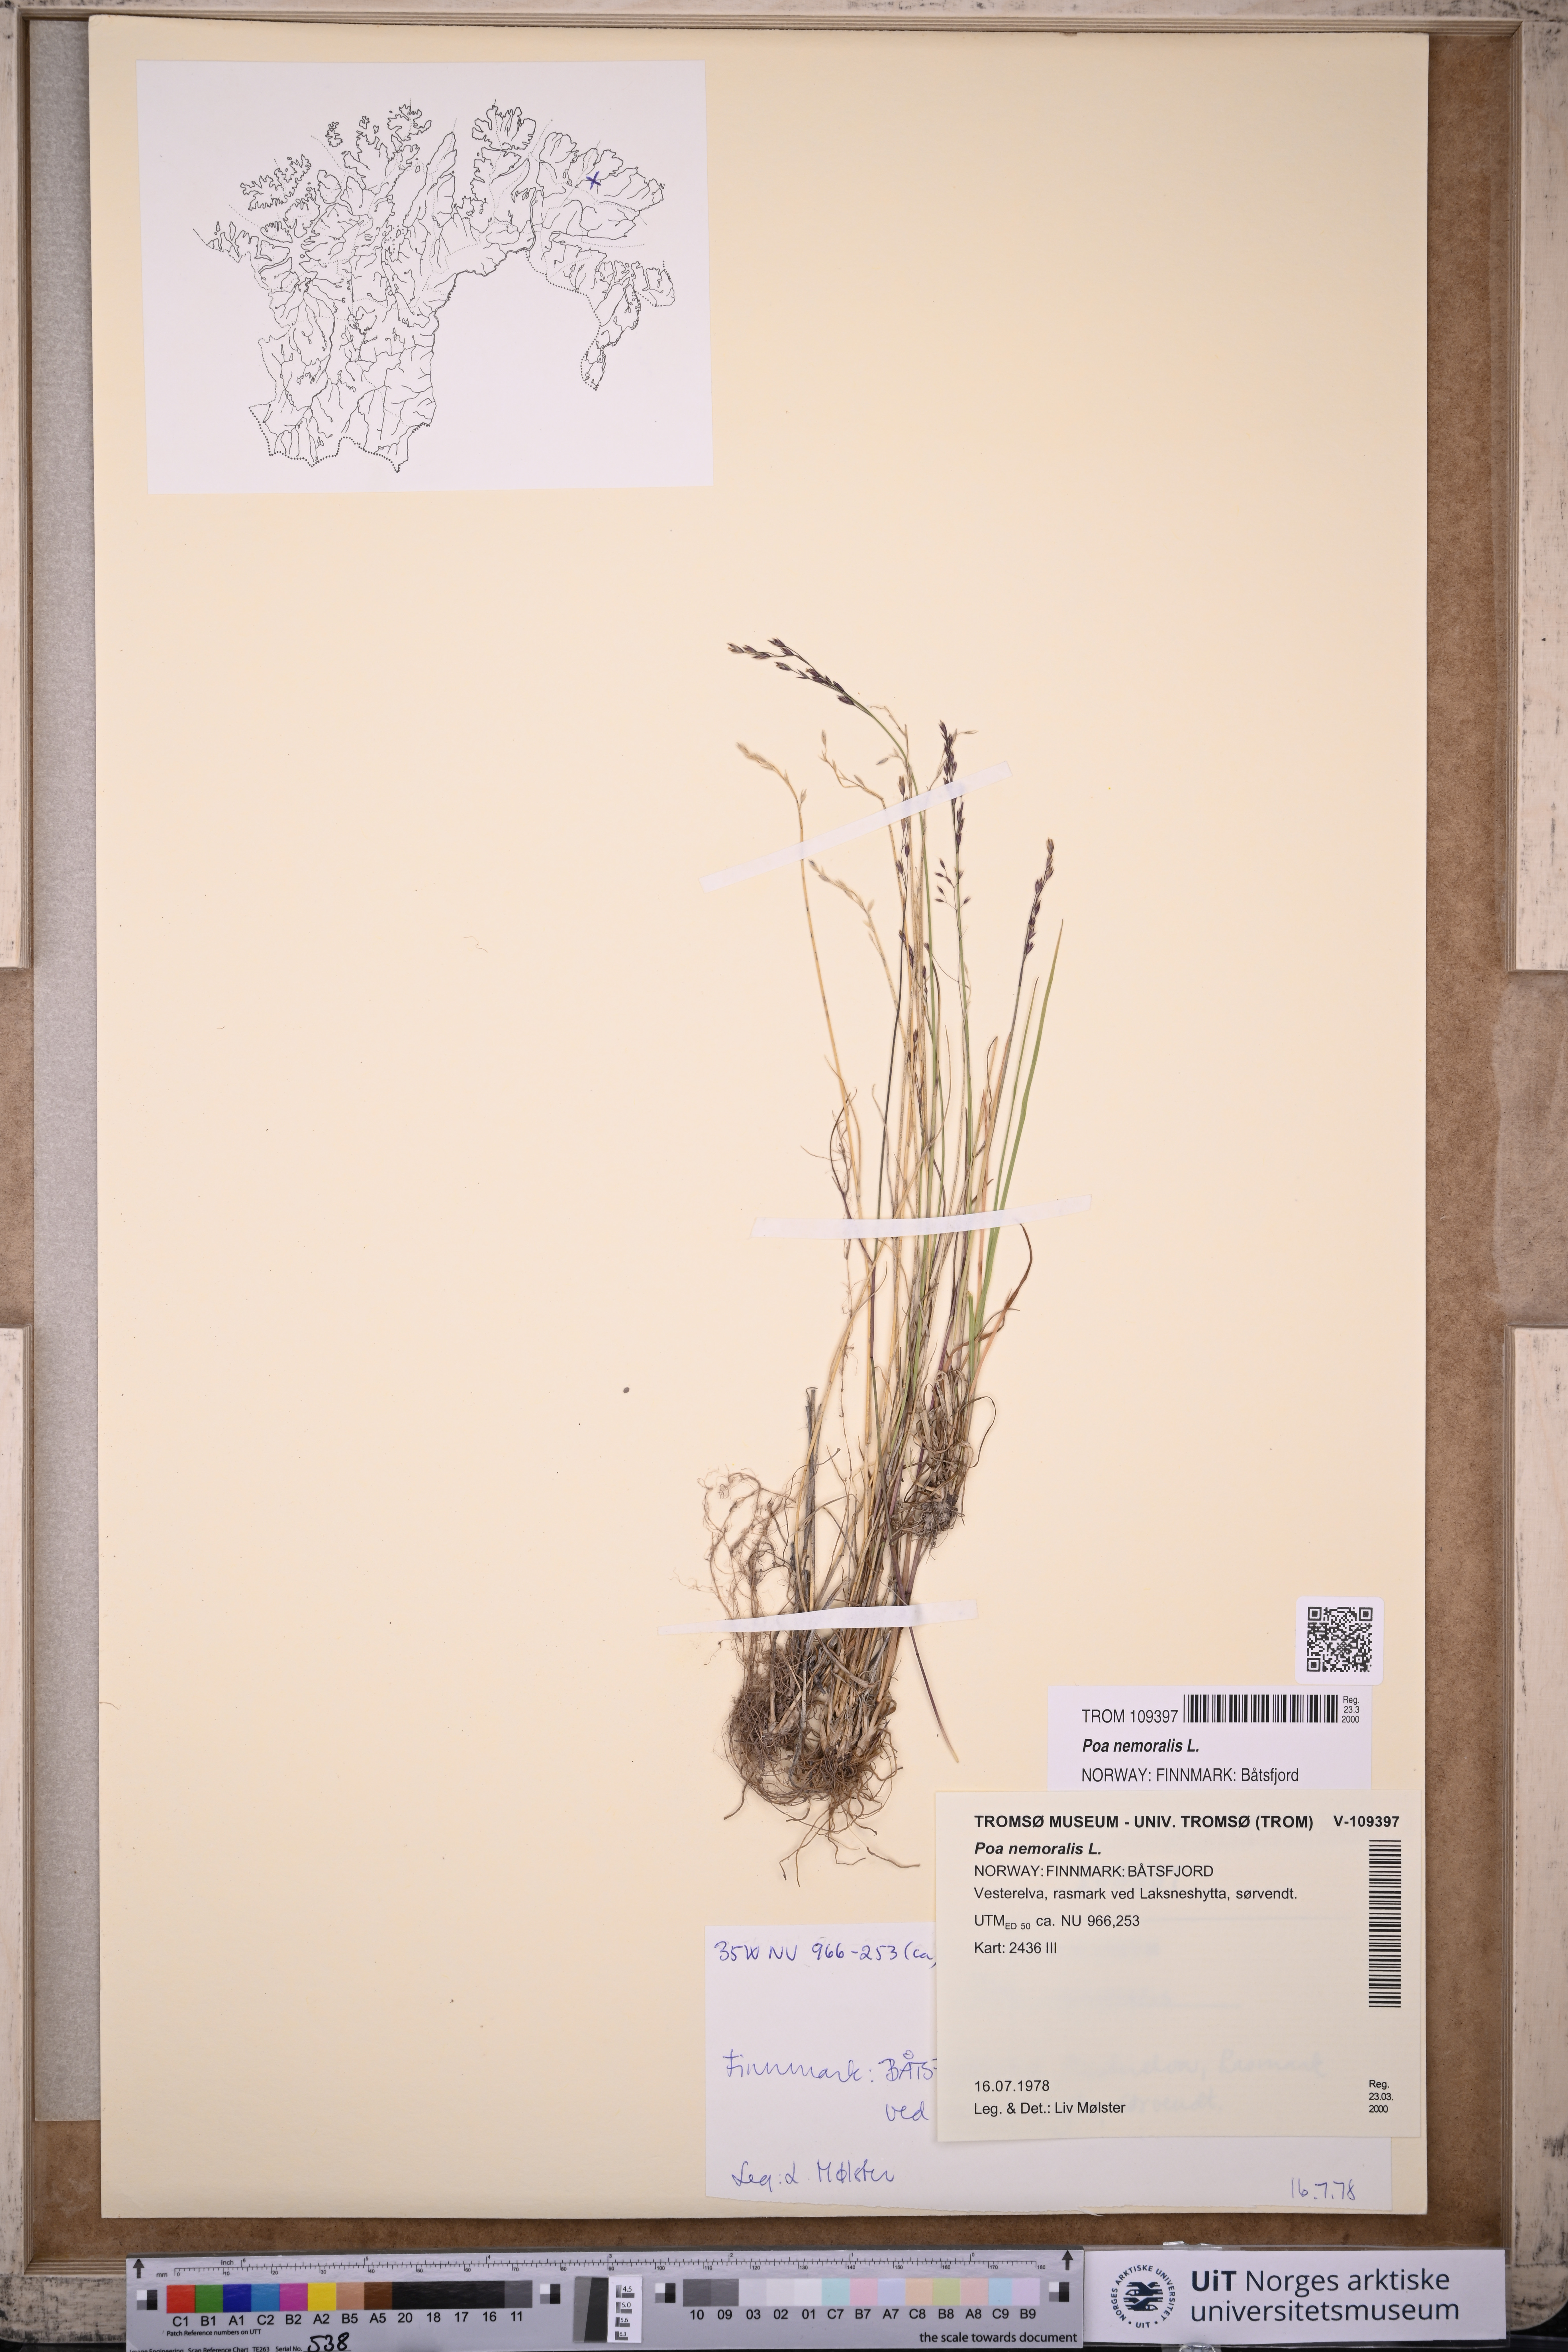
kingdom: Plantae
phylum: Tracheophyta
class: Liliopsida
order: Poales
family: Poaceae
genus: Poa
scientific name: Poa nemoralis
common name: Wood bluegrass
